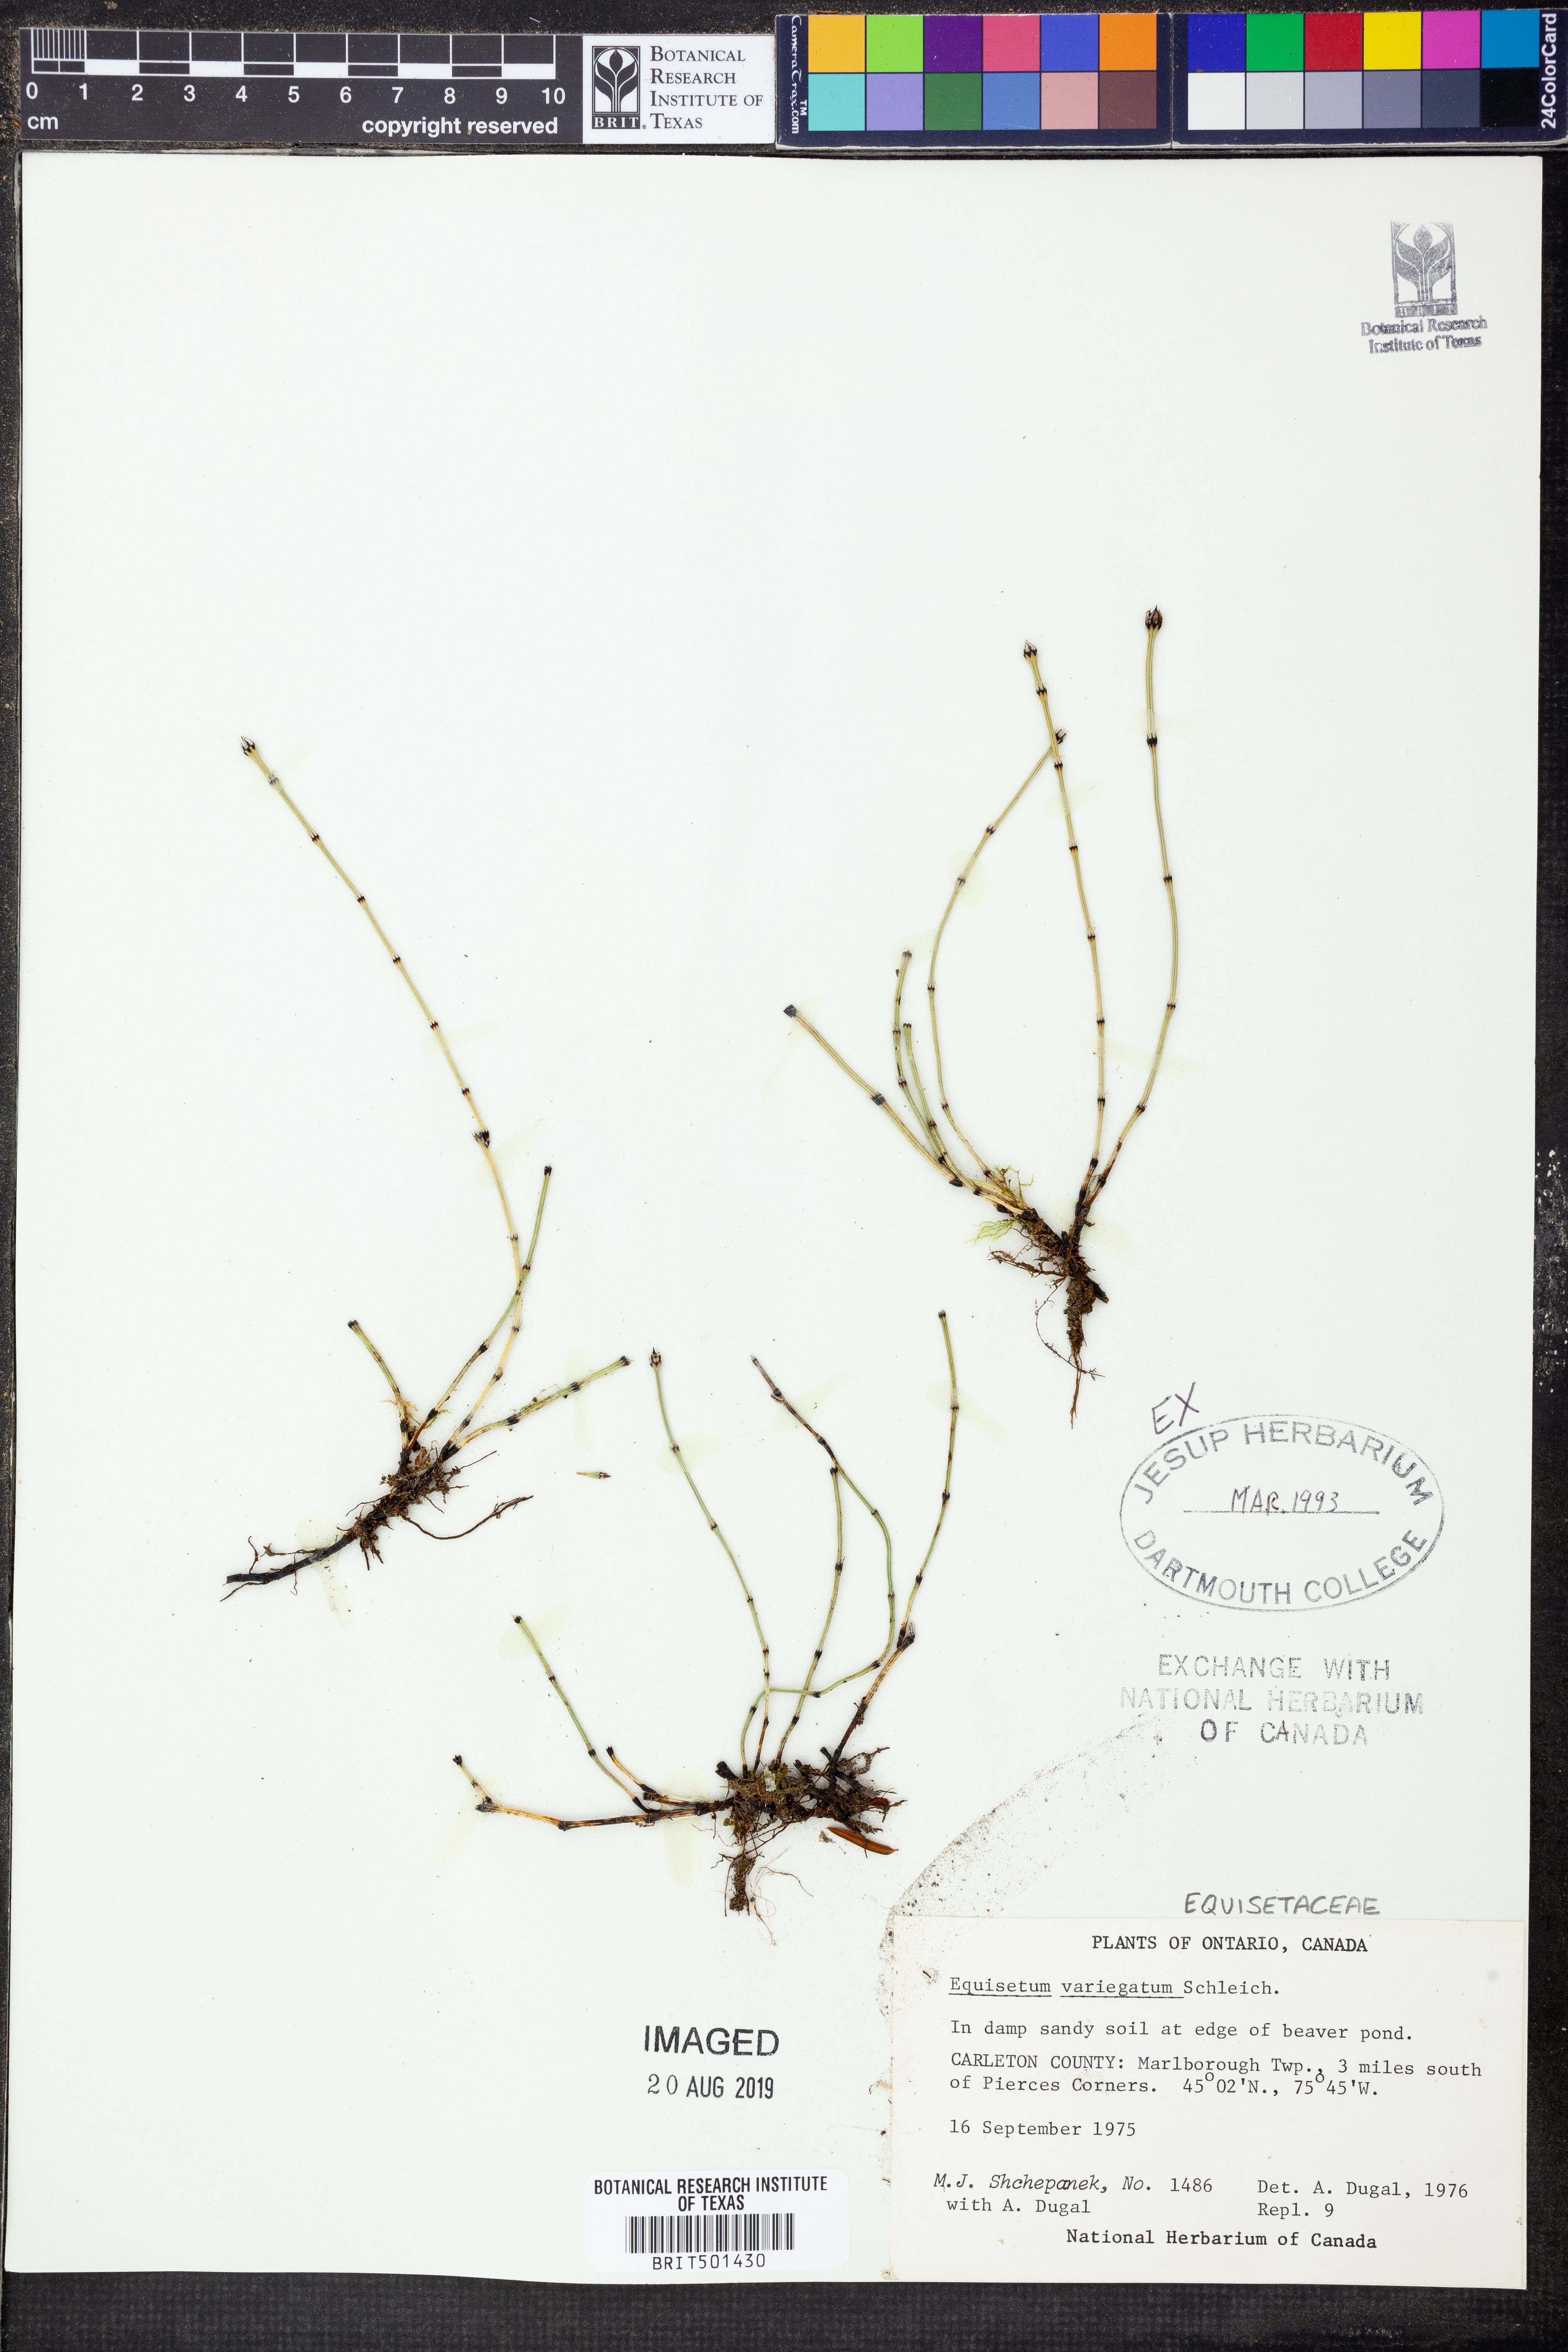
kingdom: Plantae
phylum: Tracheophyta
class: Polypodiopsida
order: Equisetales
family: Equisetaceae
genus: Equisetum
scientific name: Equisetum variegatum
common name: Variegated horsetail
